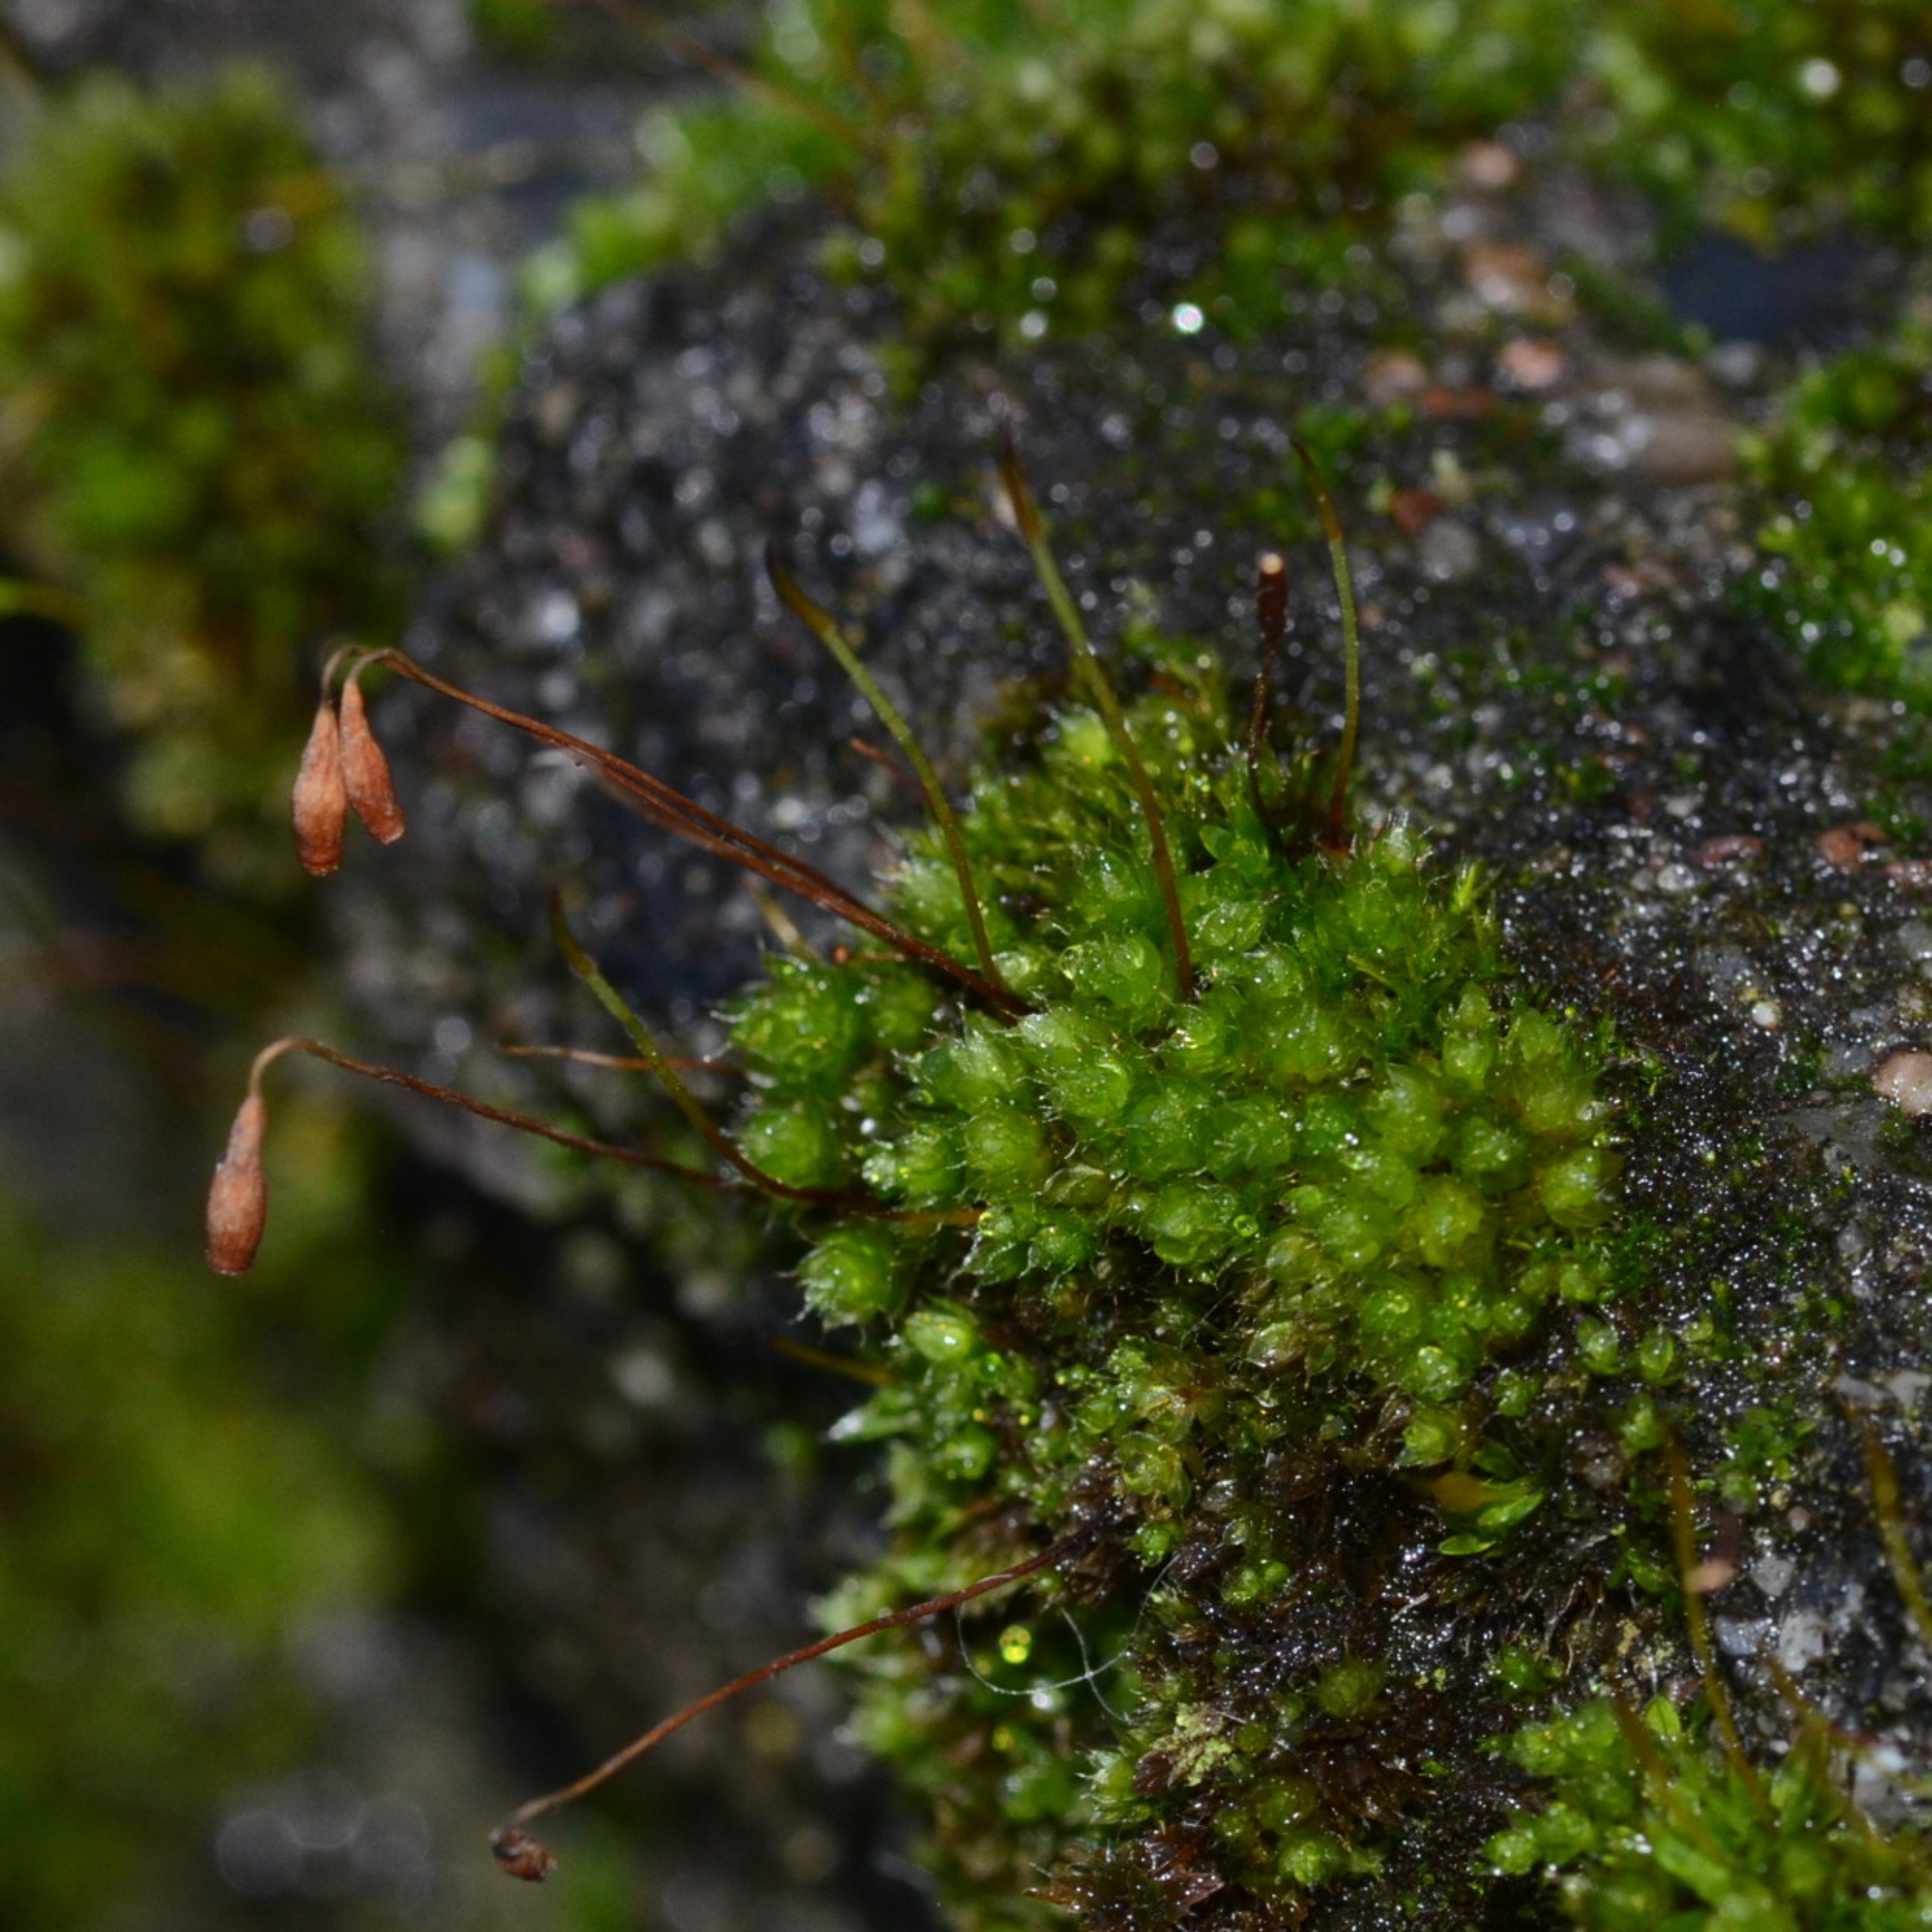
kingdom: Plantae
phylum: Bryophyta
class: Bryopsida
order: Bryales
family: Bryaceae
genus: Rosulabryum
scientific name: Rosulabryum capillare
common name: Hårspidset bryum
